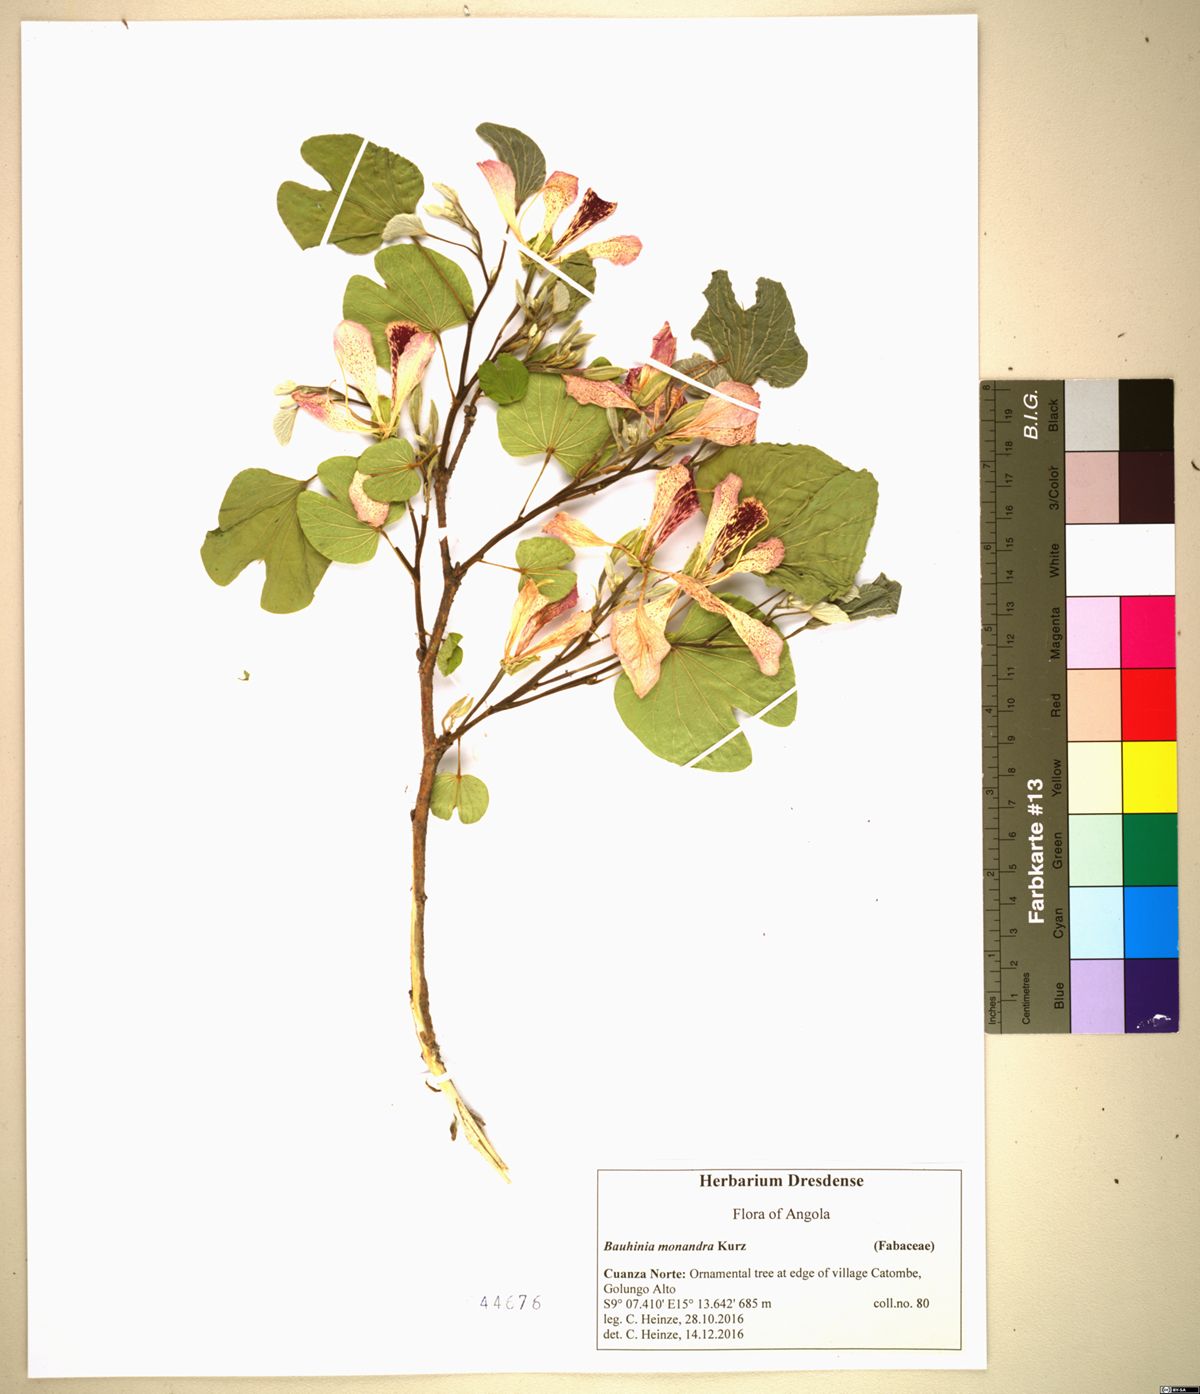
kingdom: Plantae
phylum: Tracheophyta
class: Magnoliopsida
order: Fabales
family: Fabaceae
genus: Bauhinia
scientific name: Bauhinia monandra
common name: Napoleon's plume
